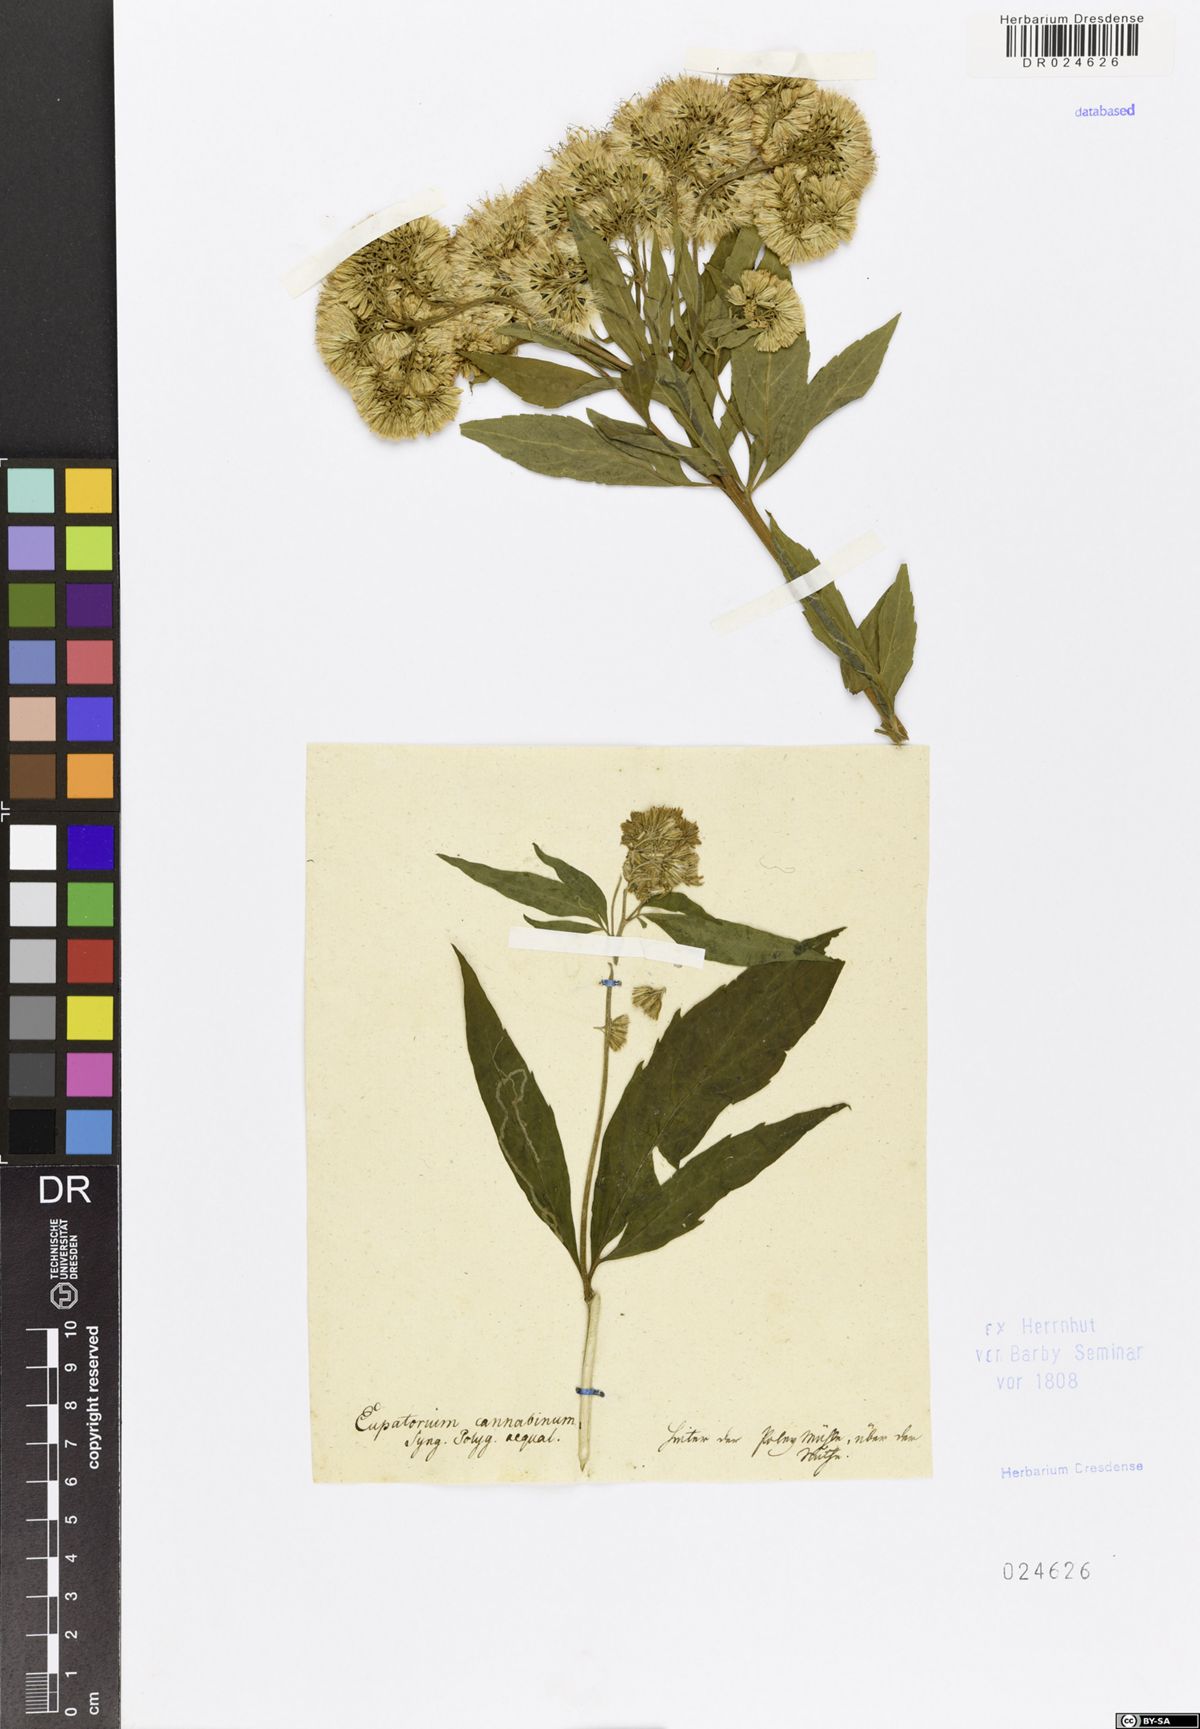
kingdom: Plantae
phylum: Tracheophyta
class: Magnoliopsida
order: Asterales
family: Asteraceae
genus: Eupatorium
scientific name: Eupatorium cannabinum
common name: Hemp-agrimony
